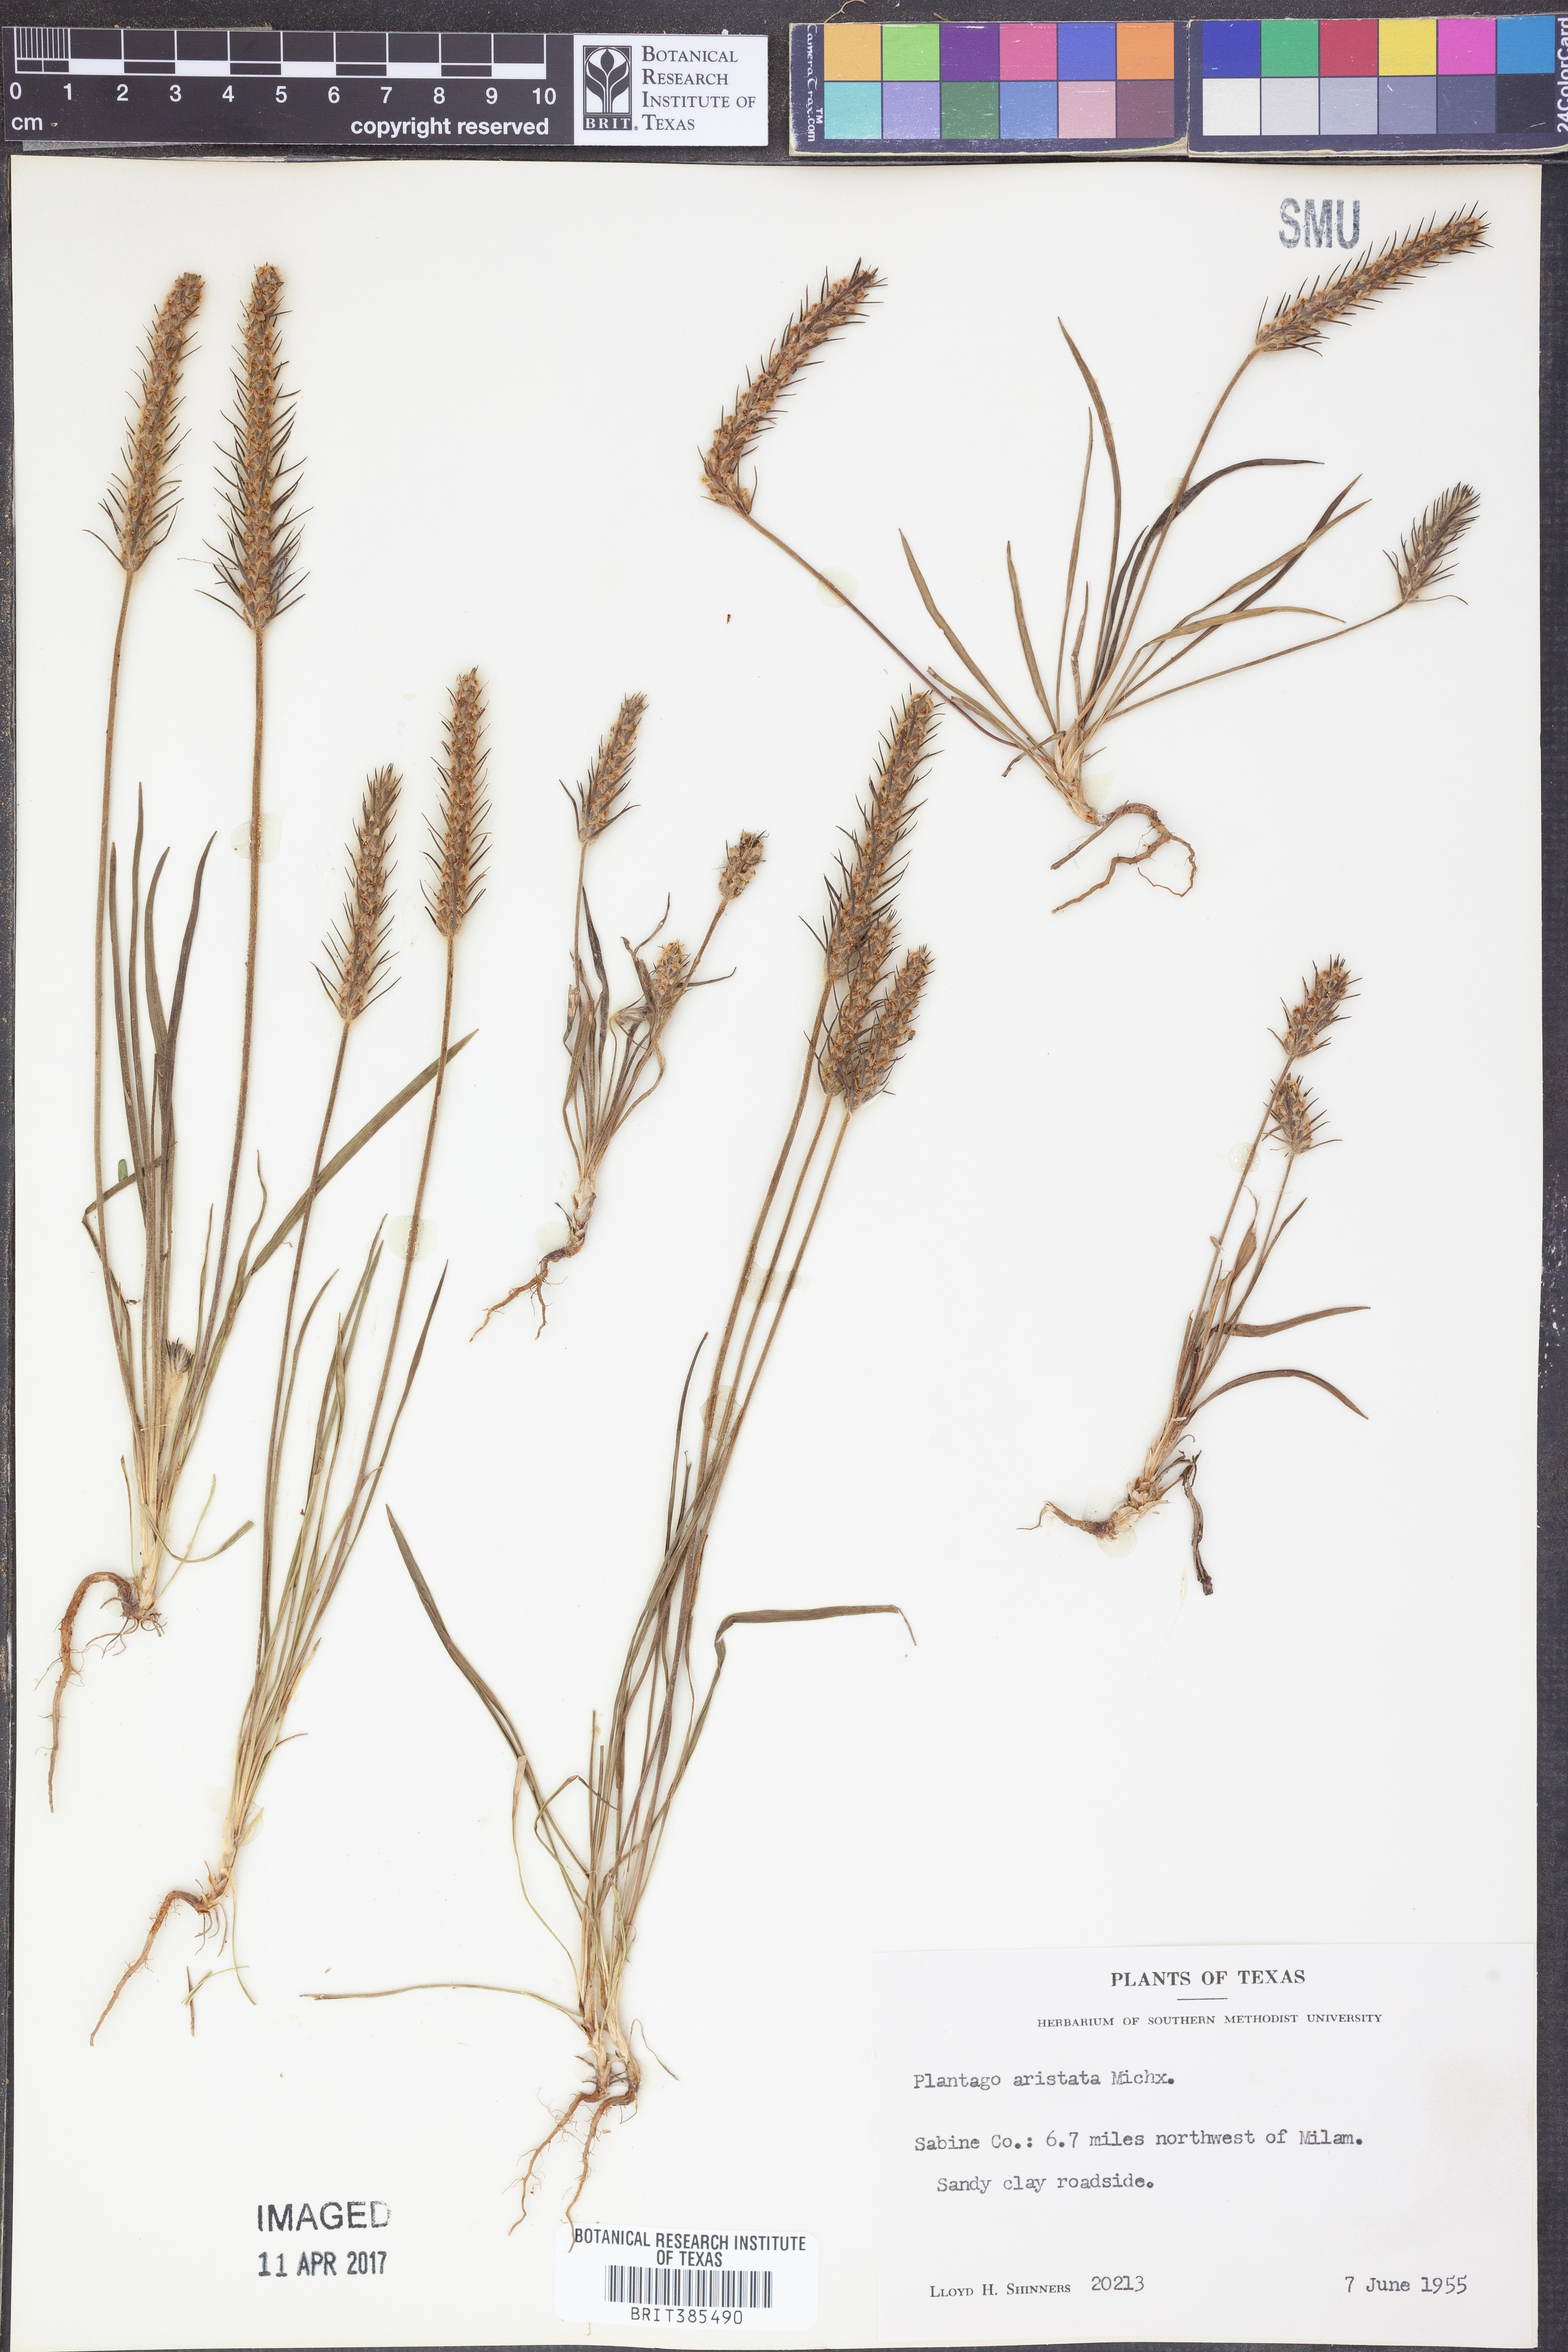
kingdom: Plantae
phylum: Tracheophyta
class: Magnoliopsida
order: Lamiales
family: Plantaginaceae
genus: Plantago
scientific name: Plantago aristata
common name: Bracted plantain
